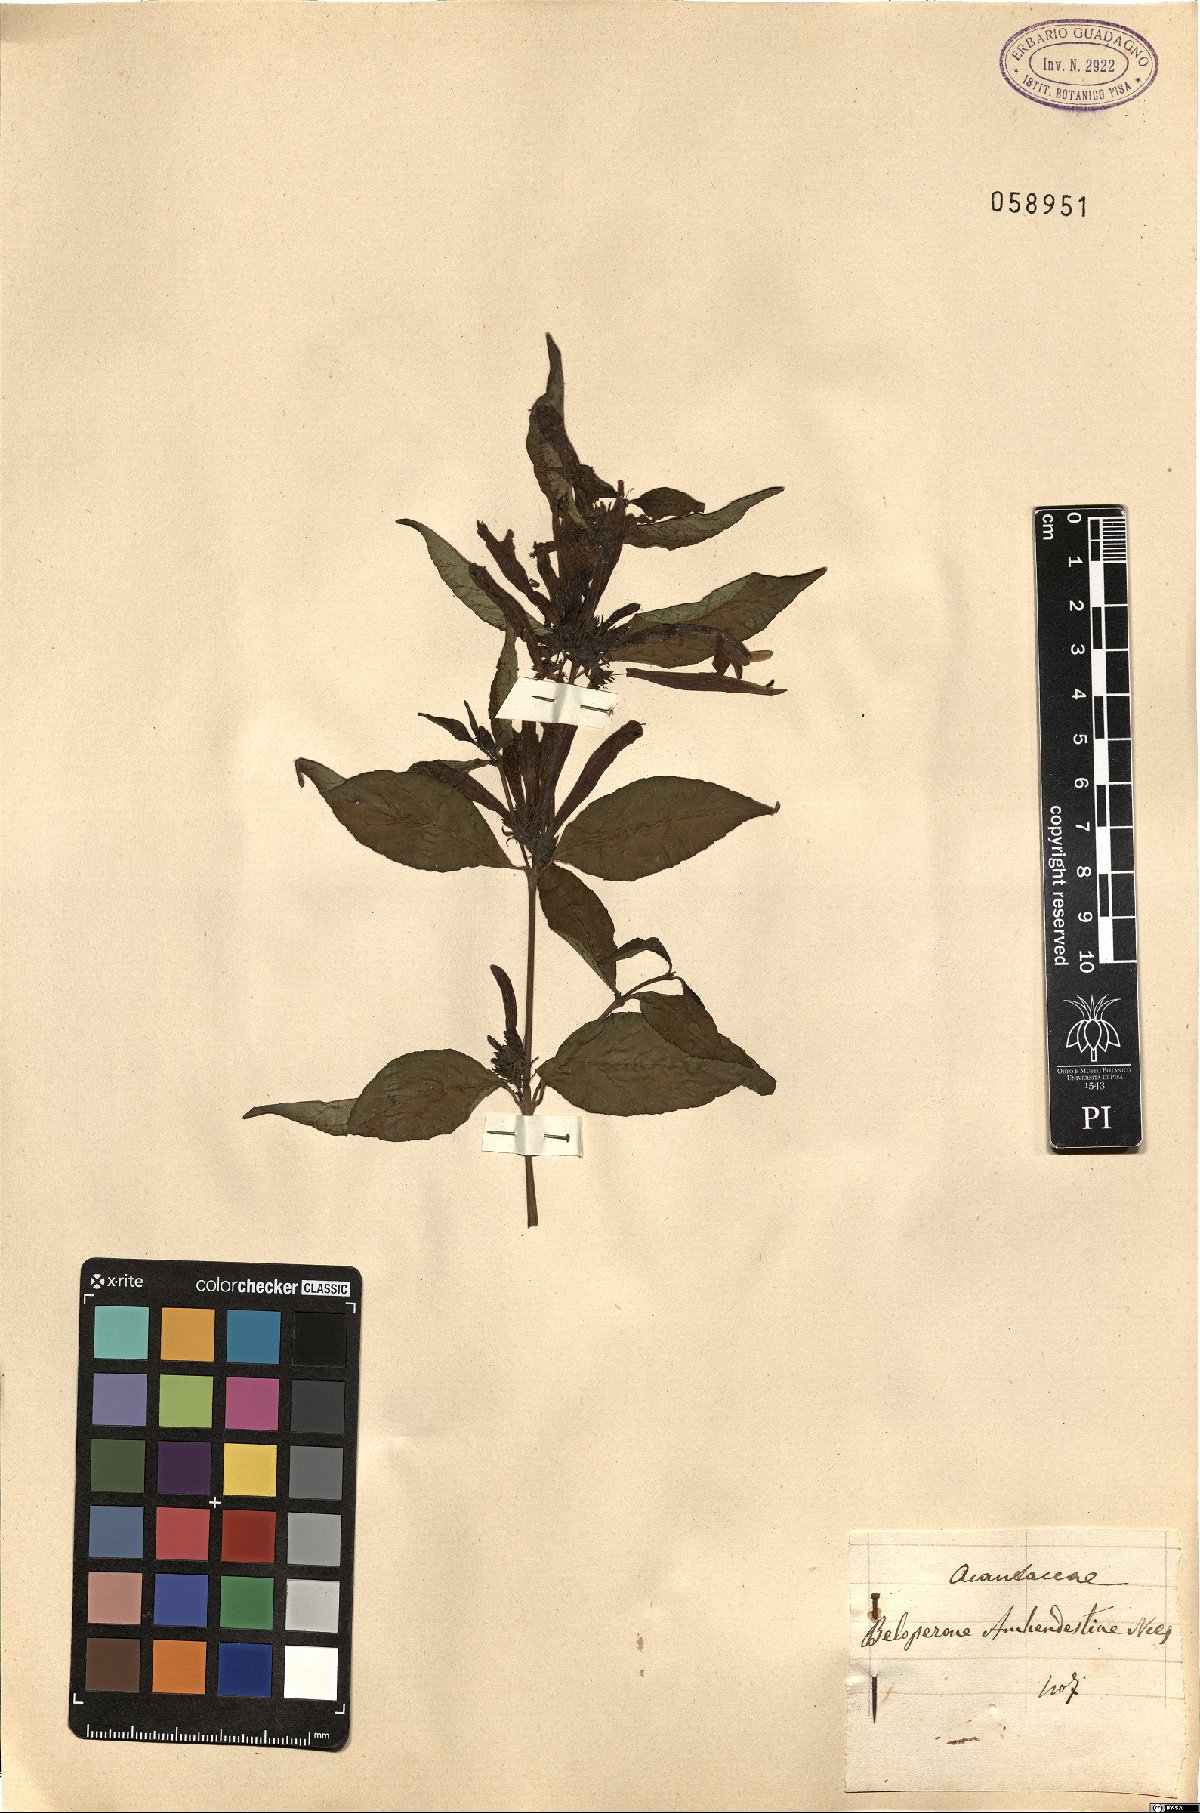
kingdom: Plantae
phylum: Tracheophyta
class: Magnoliopsida
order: Lamiales
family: Acanthaceae
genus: Justicia
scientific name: Justicia brasiliana
